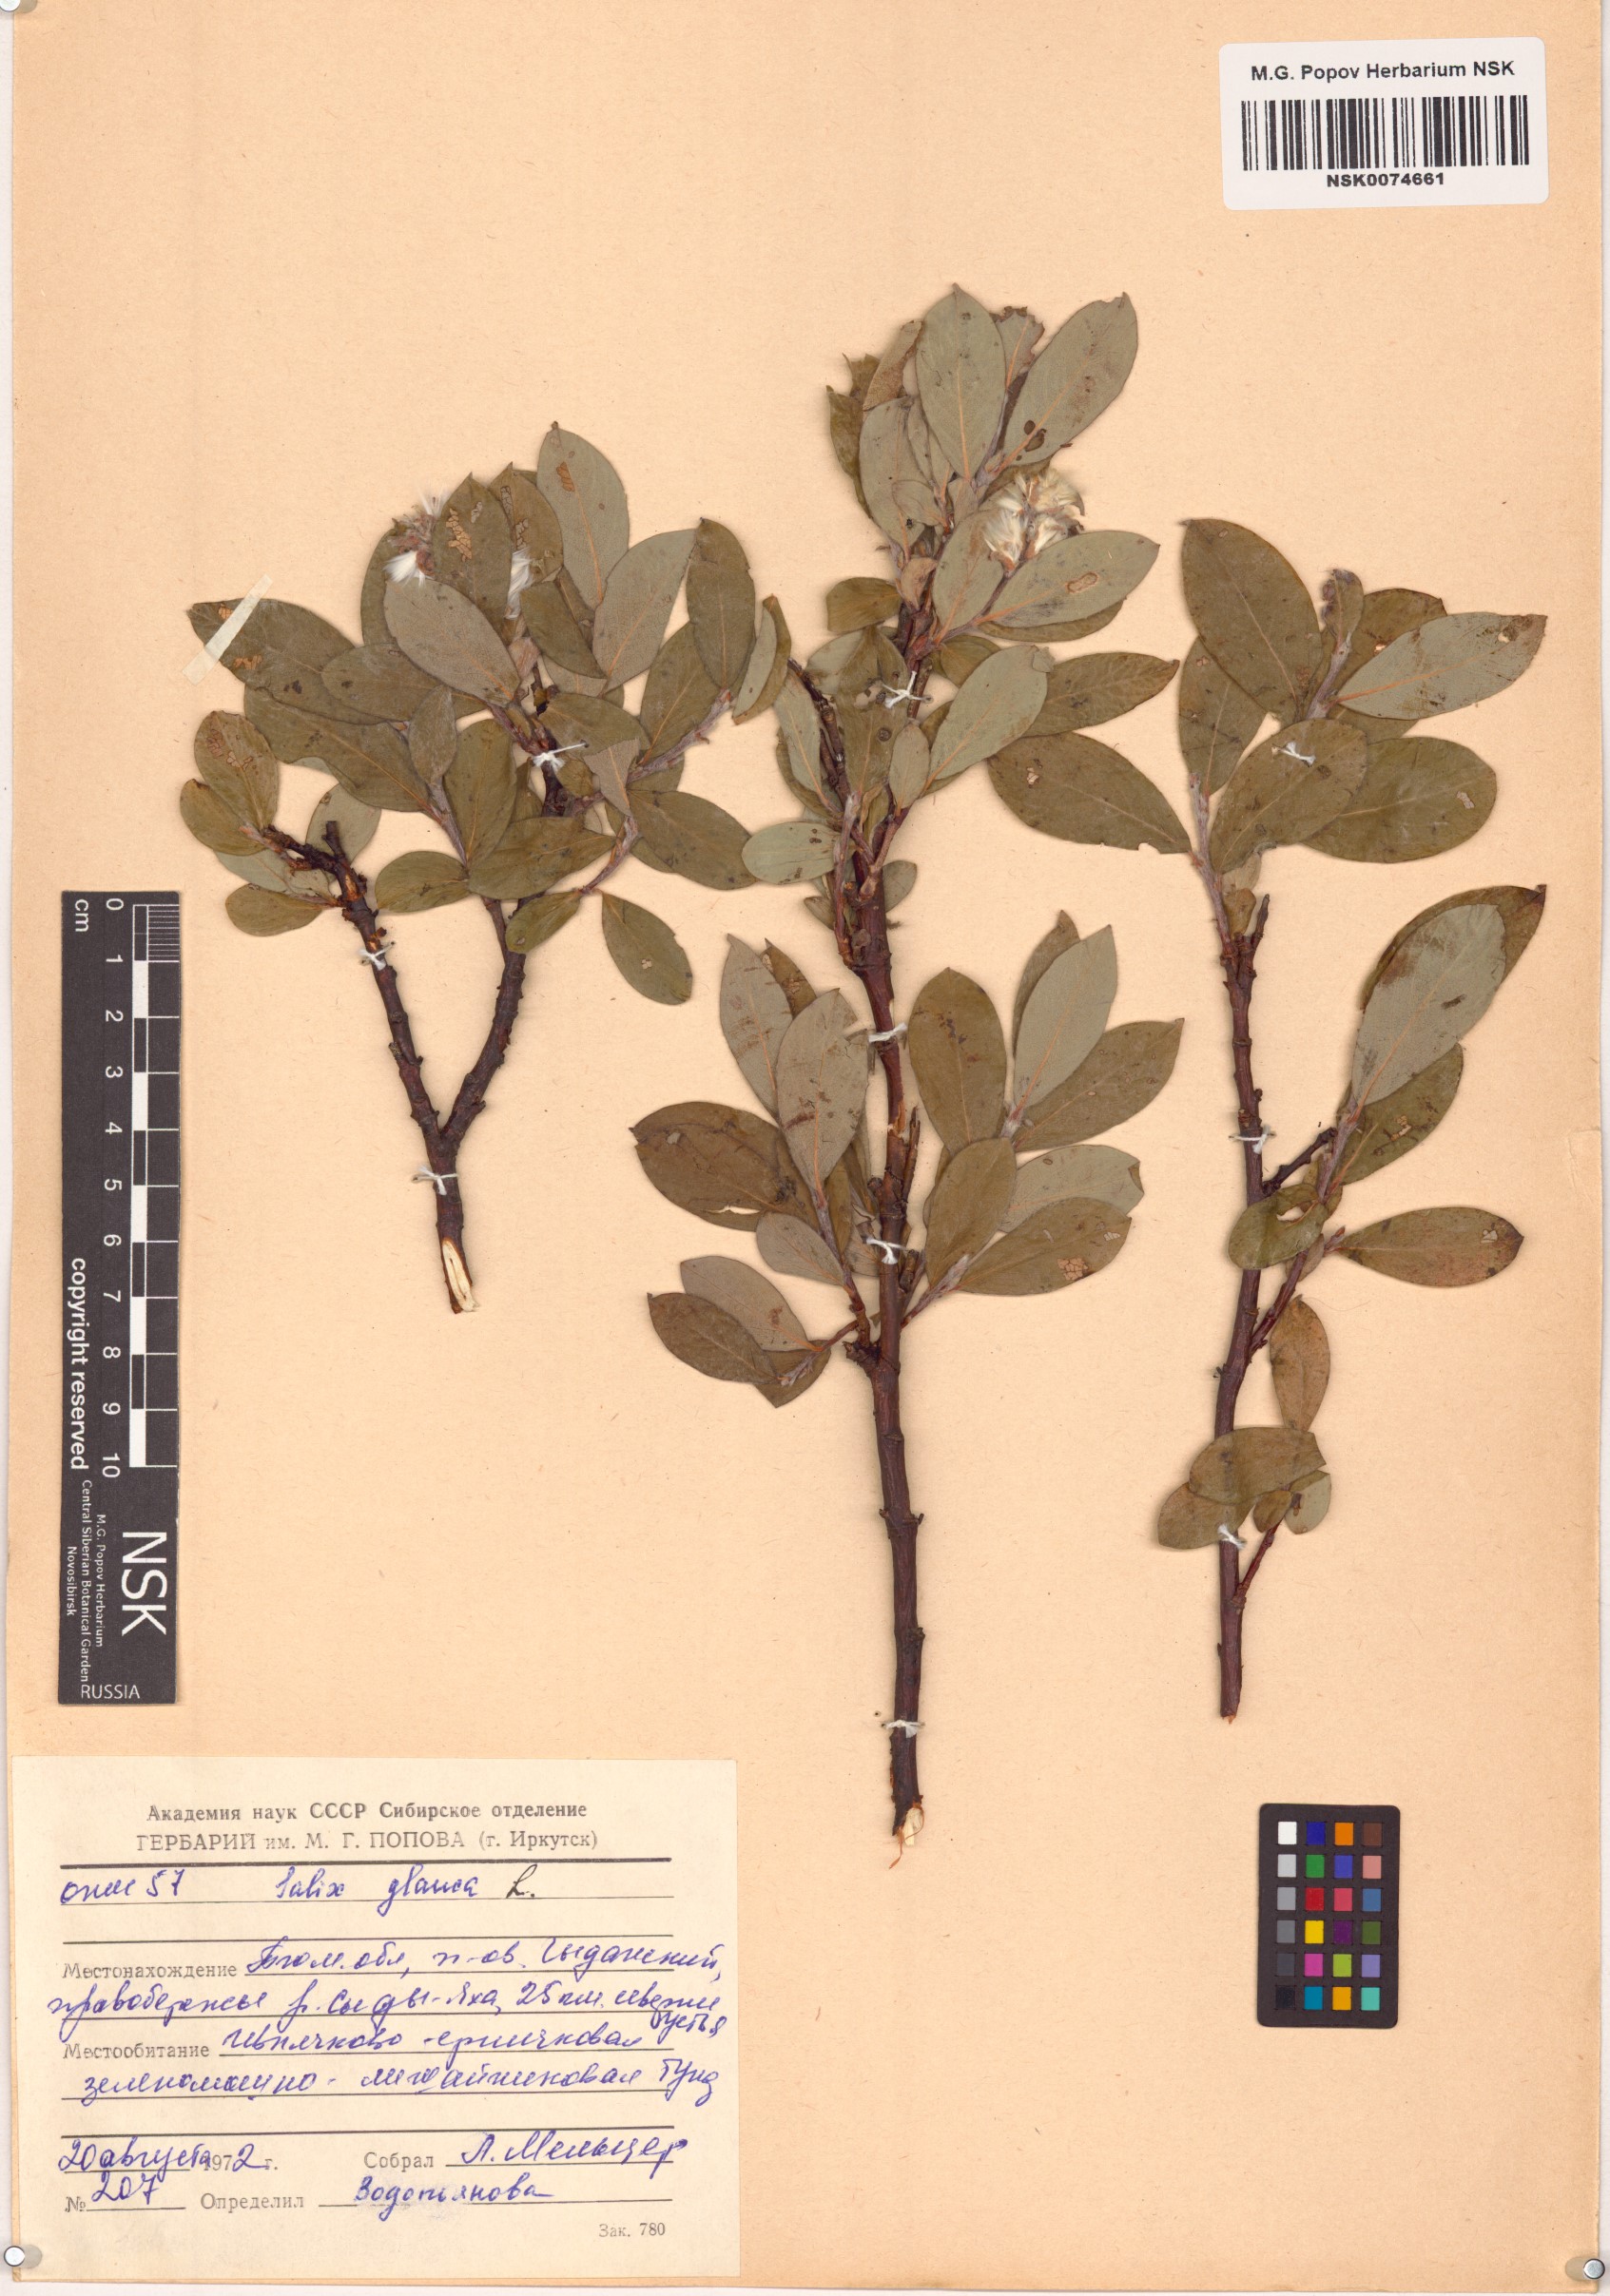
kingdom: Plantae
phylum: Tracheophyta
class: Magnoliopsida
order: Malpighiales
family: Salicaceae
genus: Salix
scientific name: Salix glauca
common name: Glaucous willow
